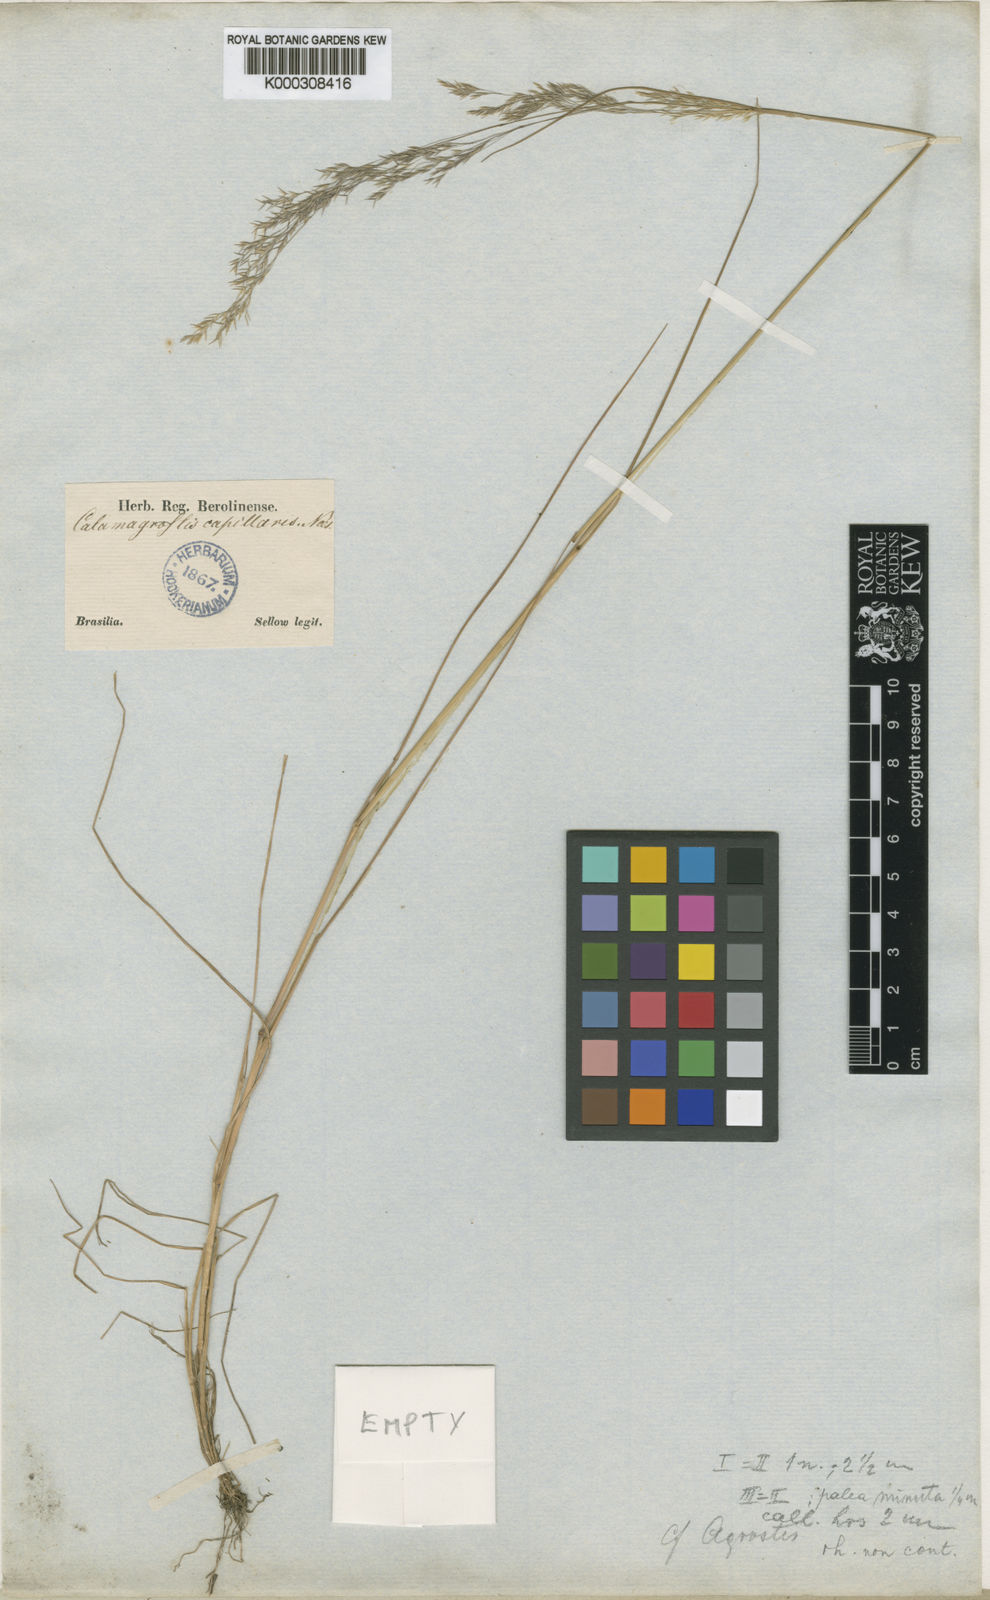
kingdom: Plantae
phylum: Tracheophyta
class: Liliopsida
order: Poales
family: Poaceae
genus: Agrostis
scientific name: Agrostis
